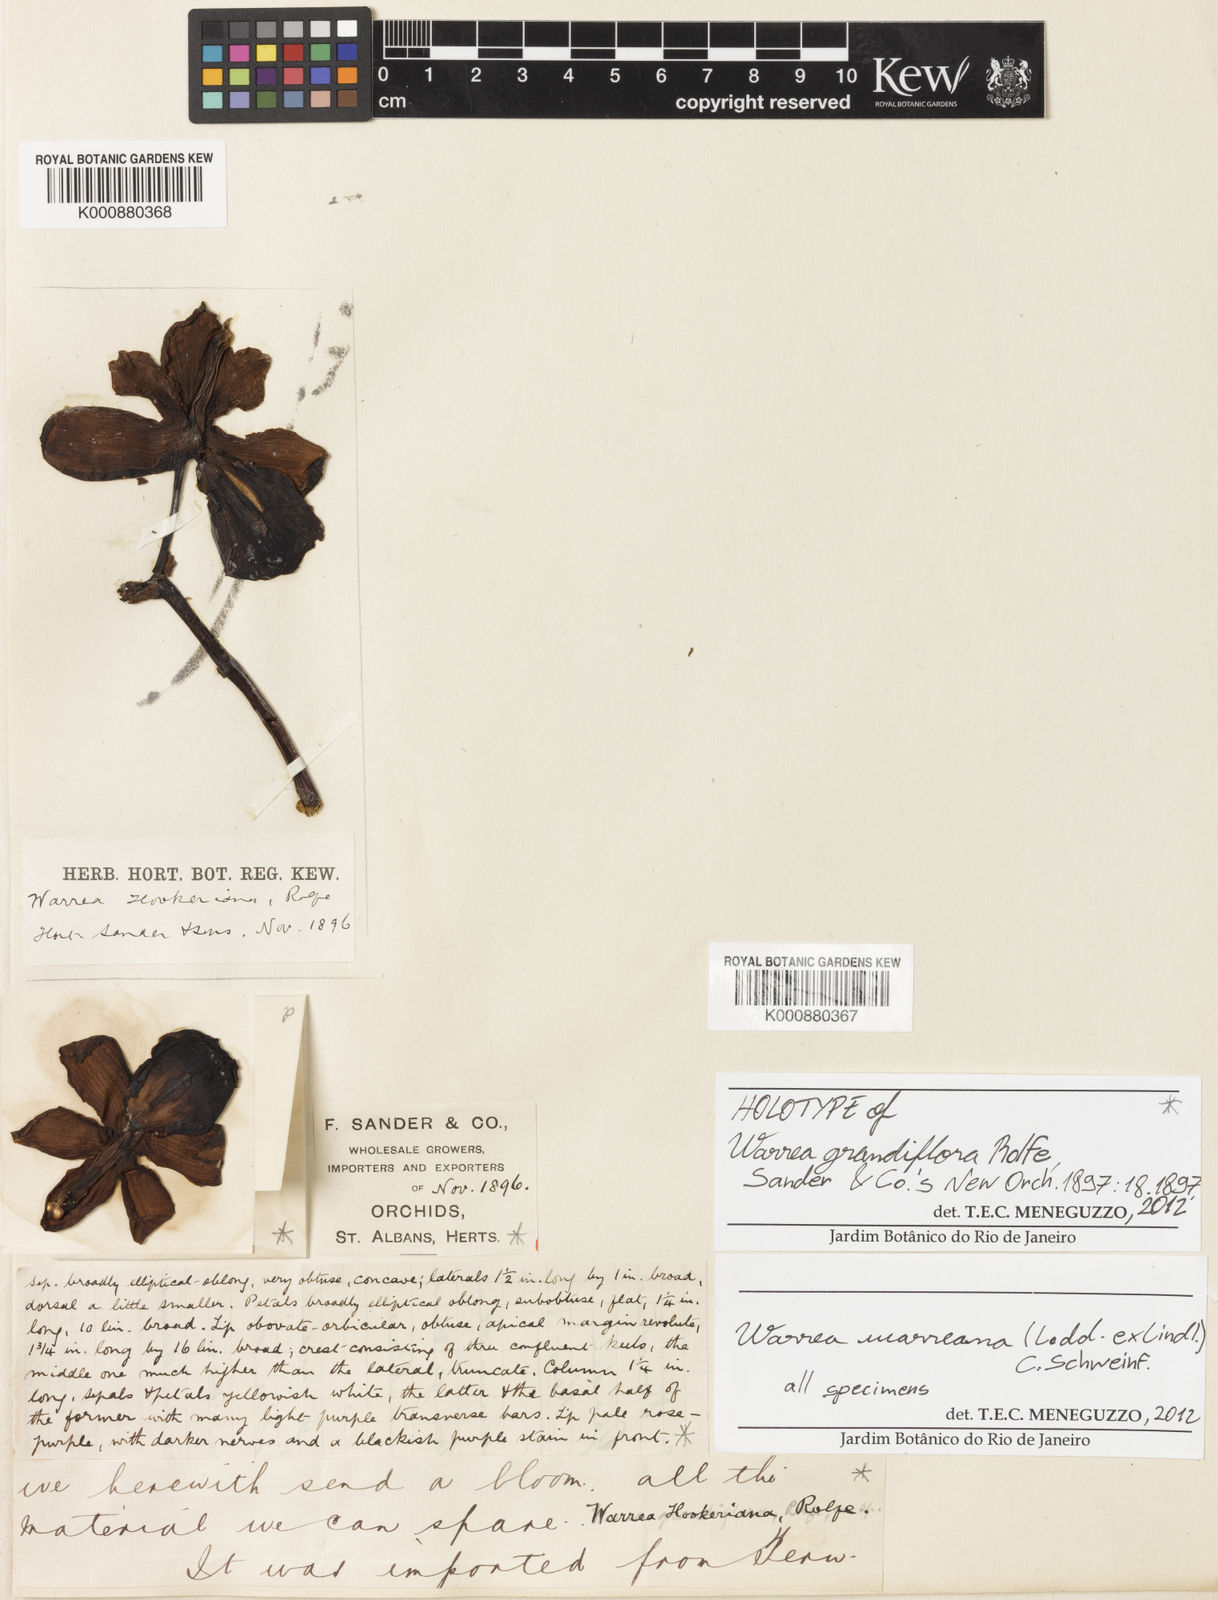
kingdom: Plantae
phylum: Tracheophyta
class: Liliopsida
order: Asparagales
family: Orchidaceae
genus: Warrea
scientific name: Warrea warreana
